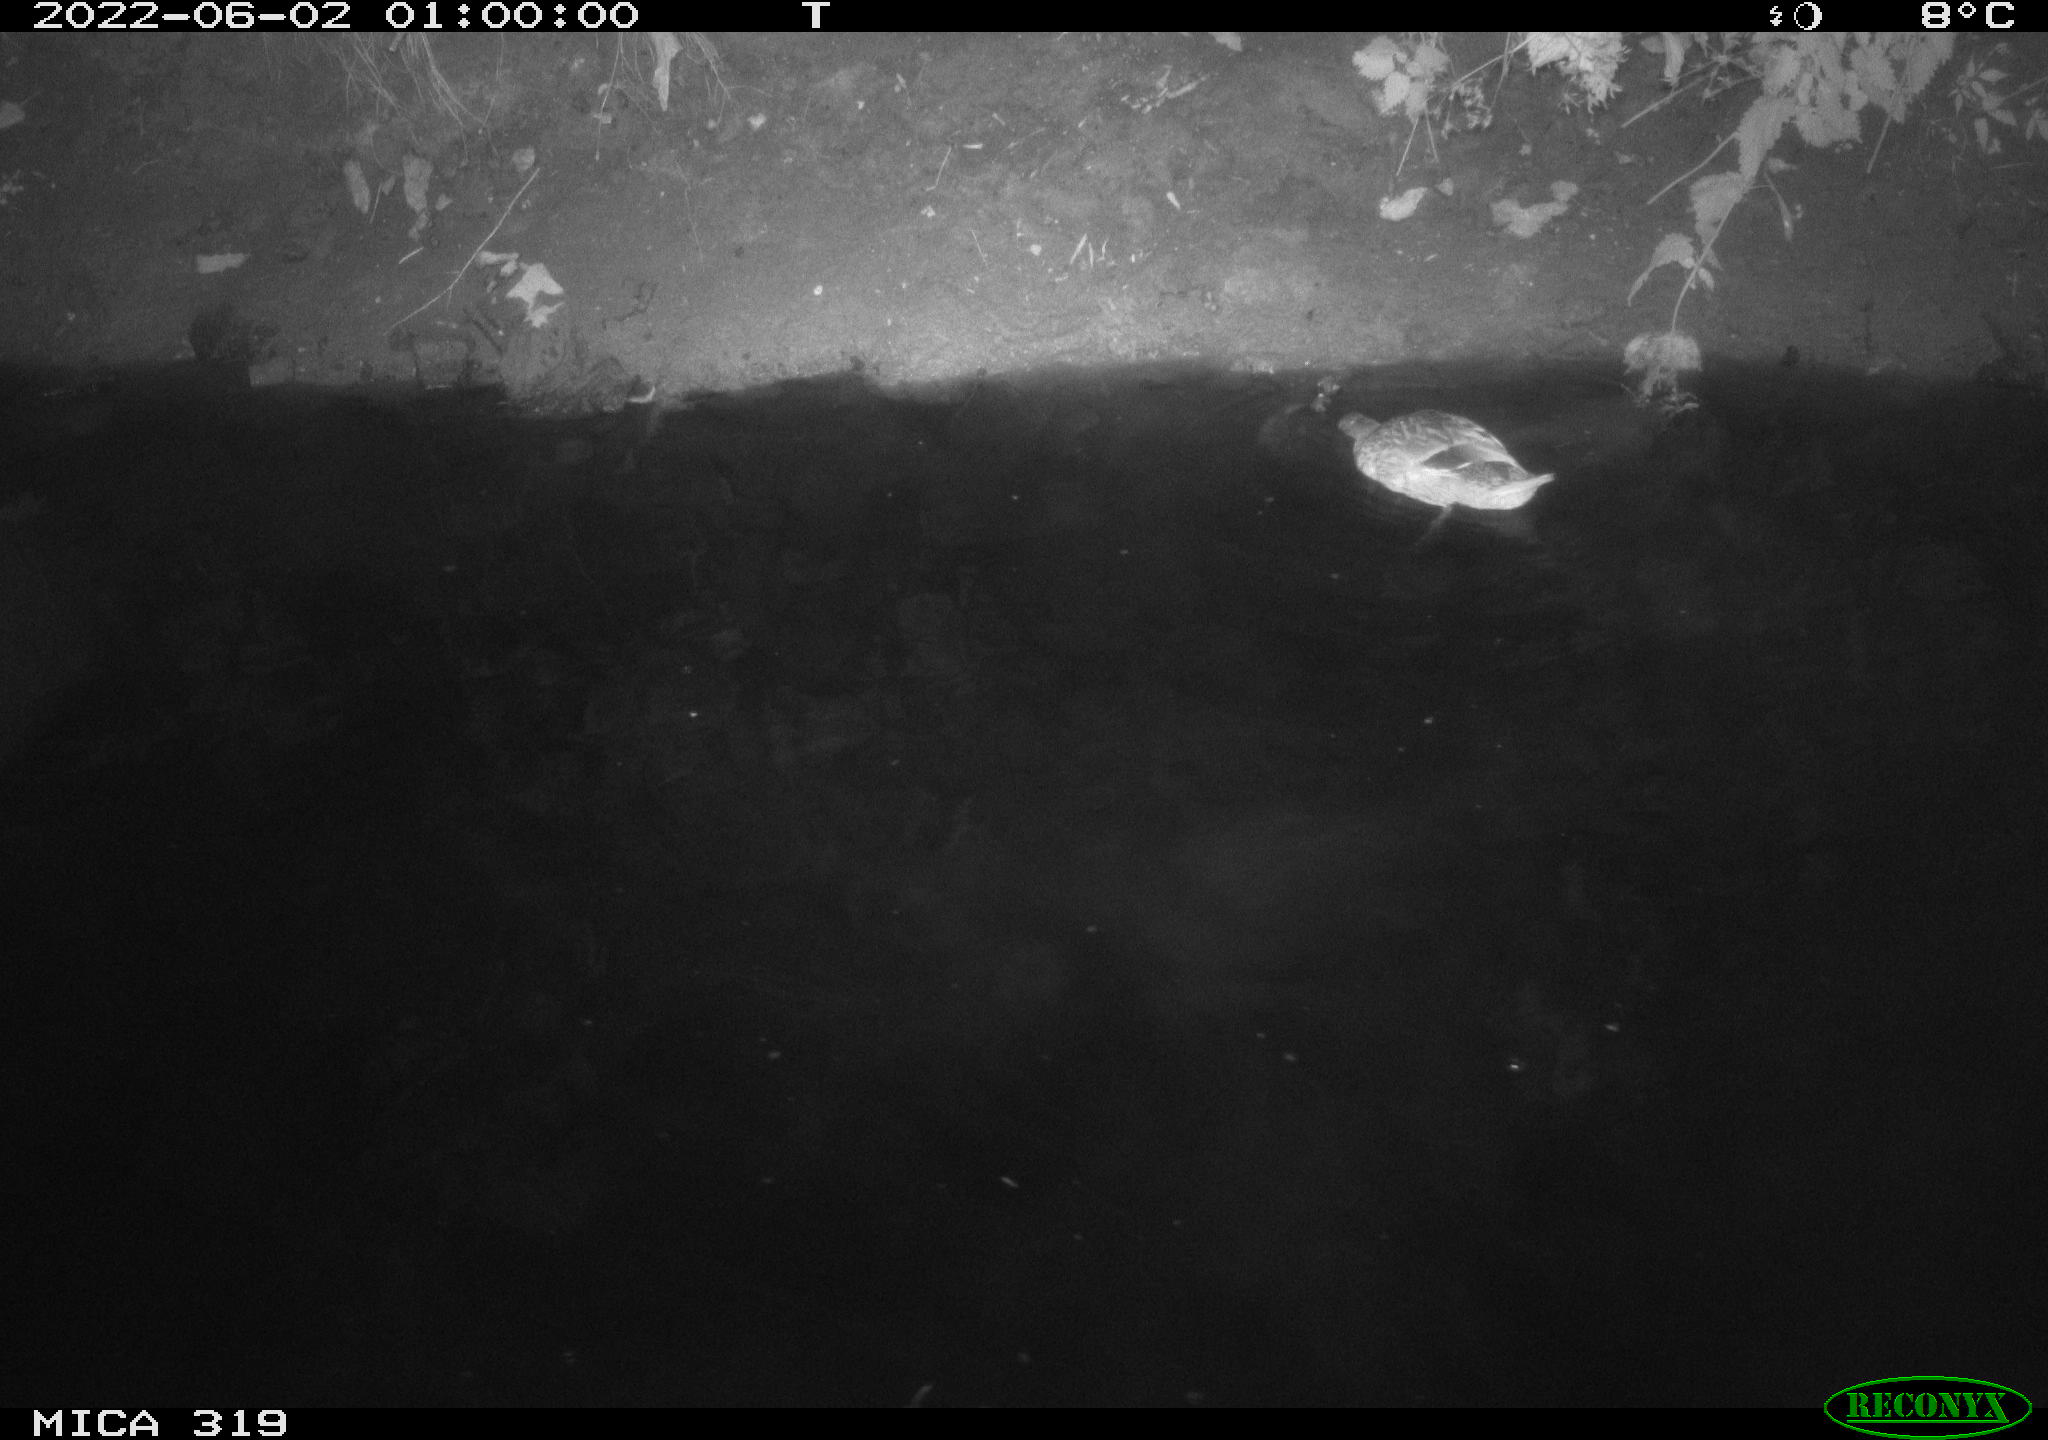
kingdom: Animalia
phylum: Chordata
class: Aves
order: Anseriformes
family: Anatidae
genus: Anas
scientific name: Anas
